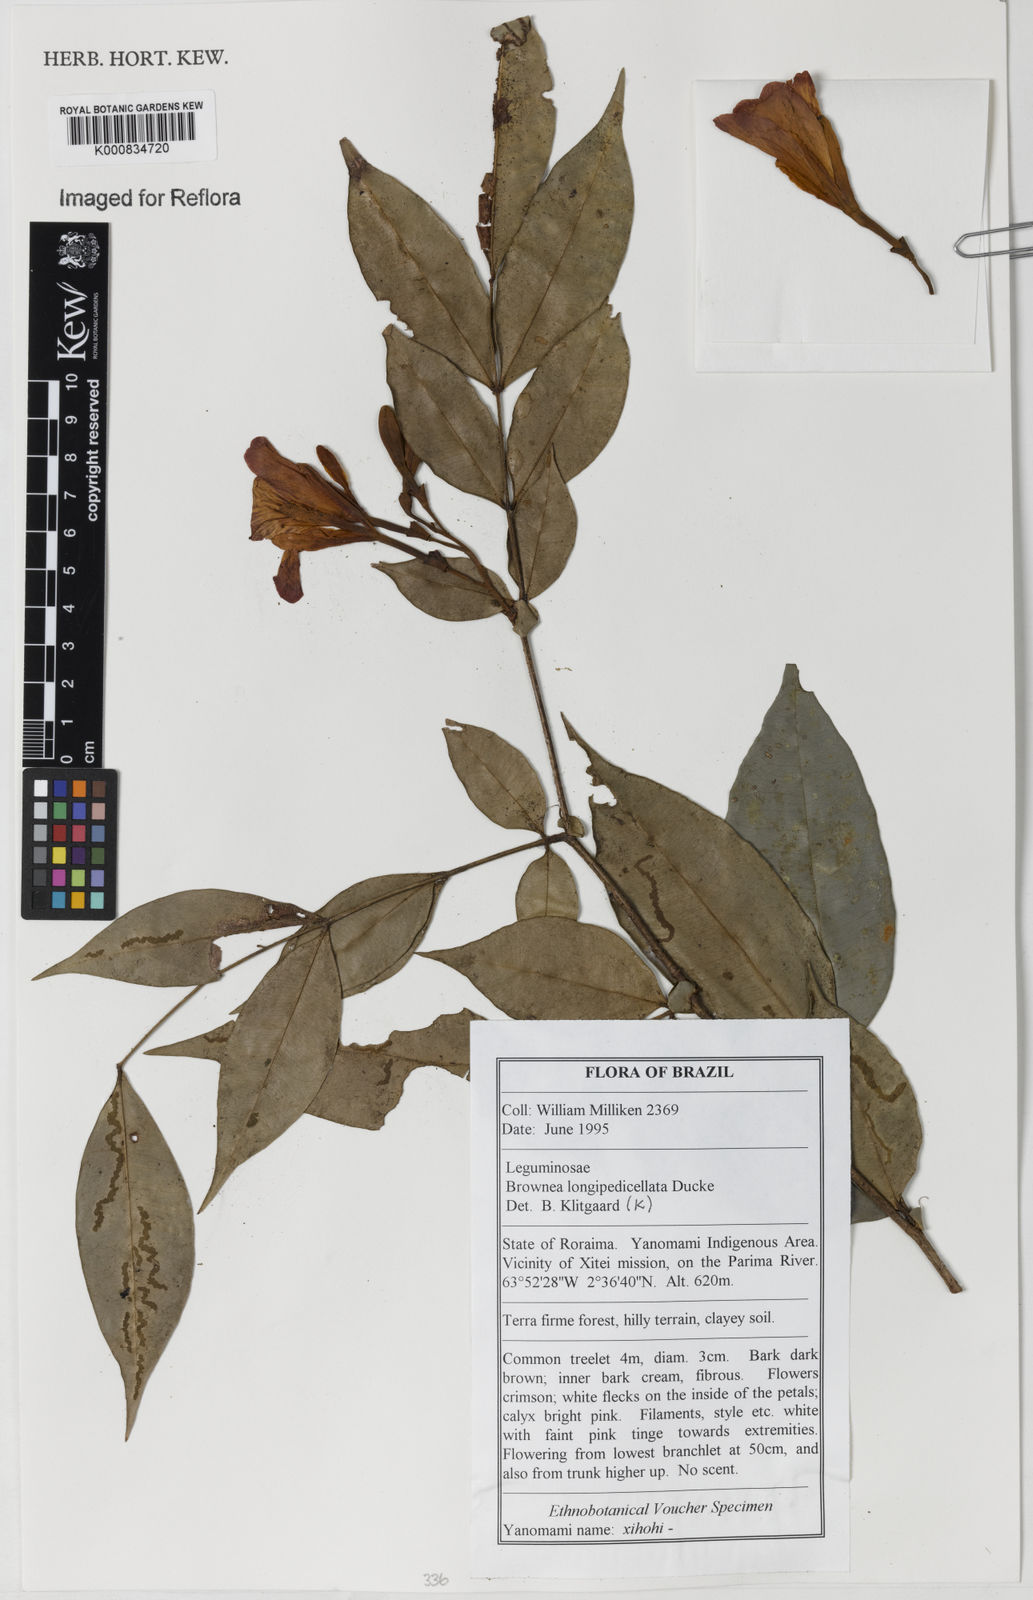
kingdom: Plantae
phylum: Tracheophyta
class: Magnoliopsida
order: Fabales
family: Fabaceae
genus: Brownea
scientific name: Brownea longipedicellata
